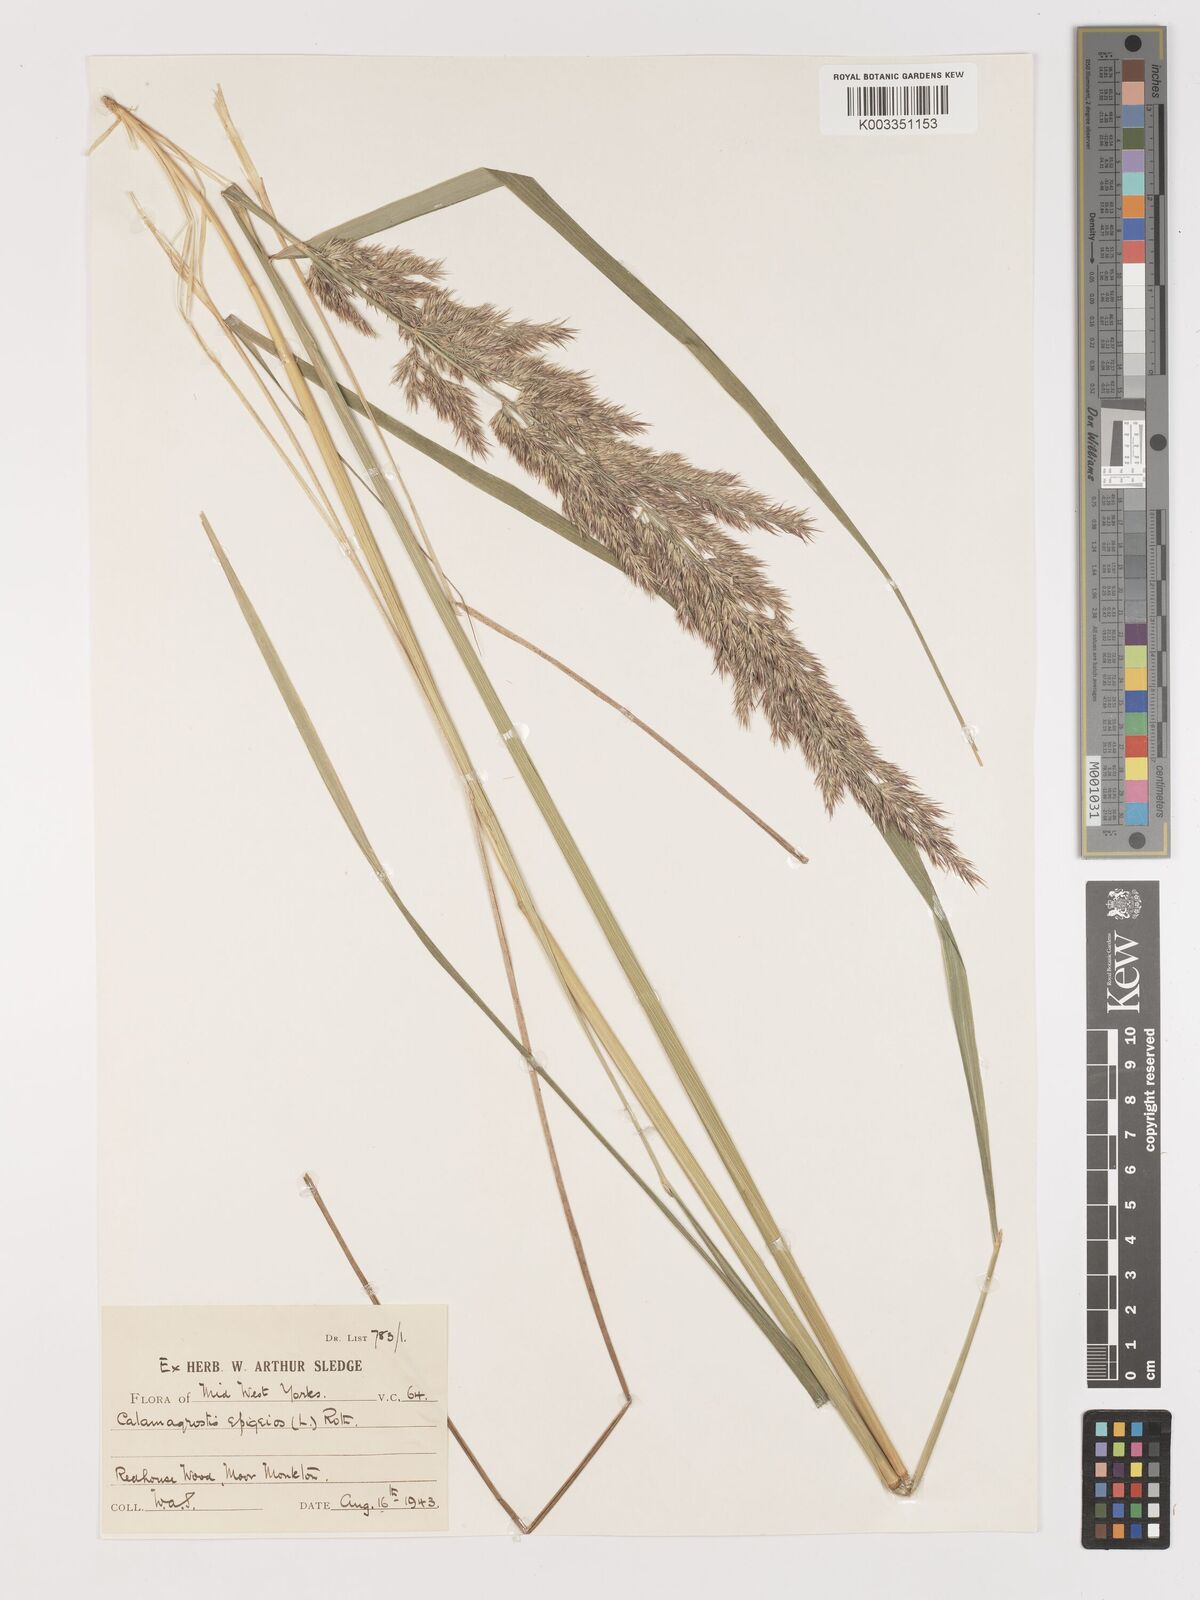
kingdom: Plantae
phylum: Tracheophyta
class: Liliopsida
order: Poales
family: Poaceae
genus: Calamagrostis
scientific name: Calamagrostis
